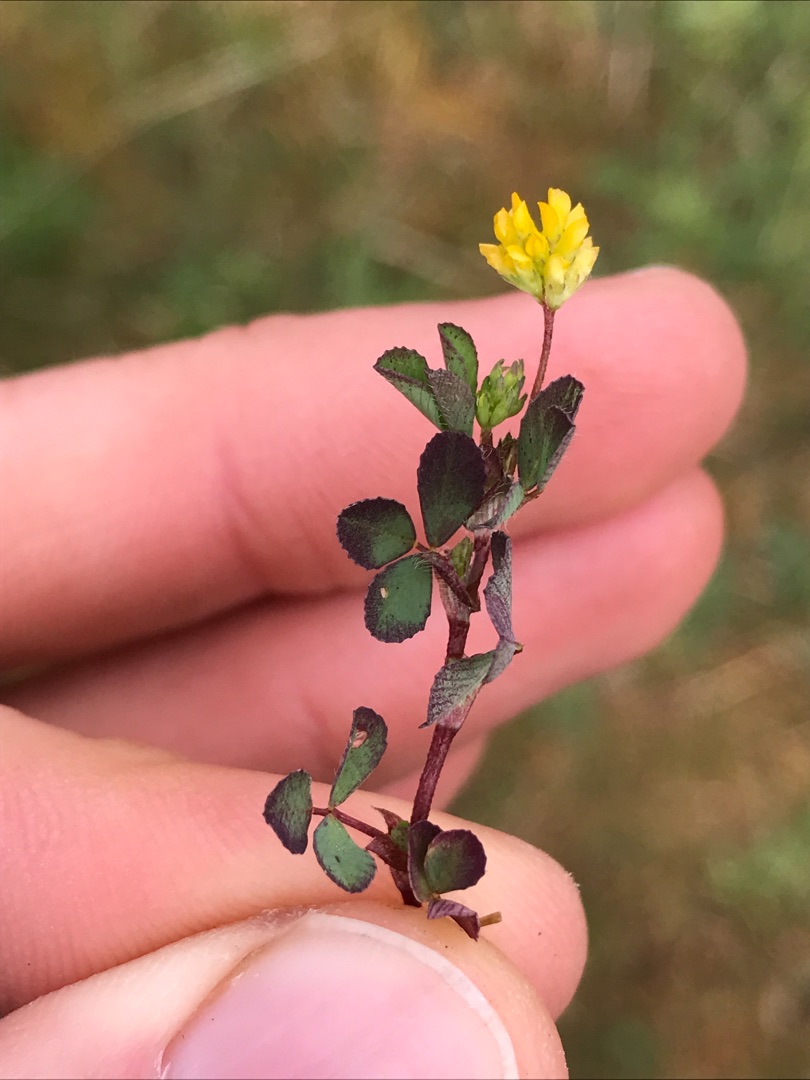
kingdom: Plantae
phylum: Tracheophyta
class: Magnoliopsida
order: Fabales
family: Fabaceae
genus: Trifolium
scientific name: Trifolium dubium
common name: Fin kløver
